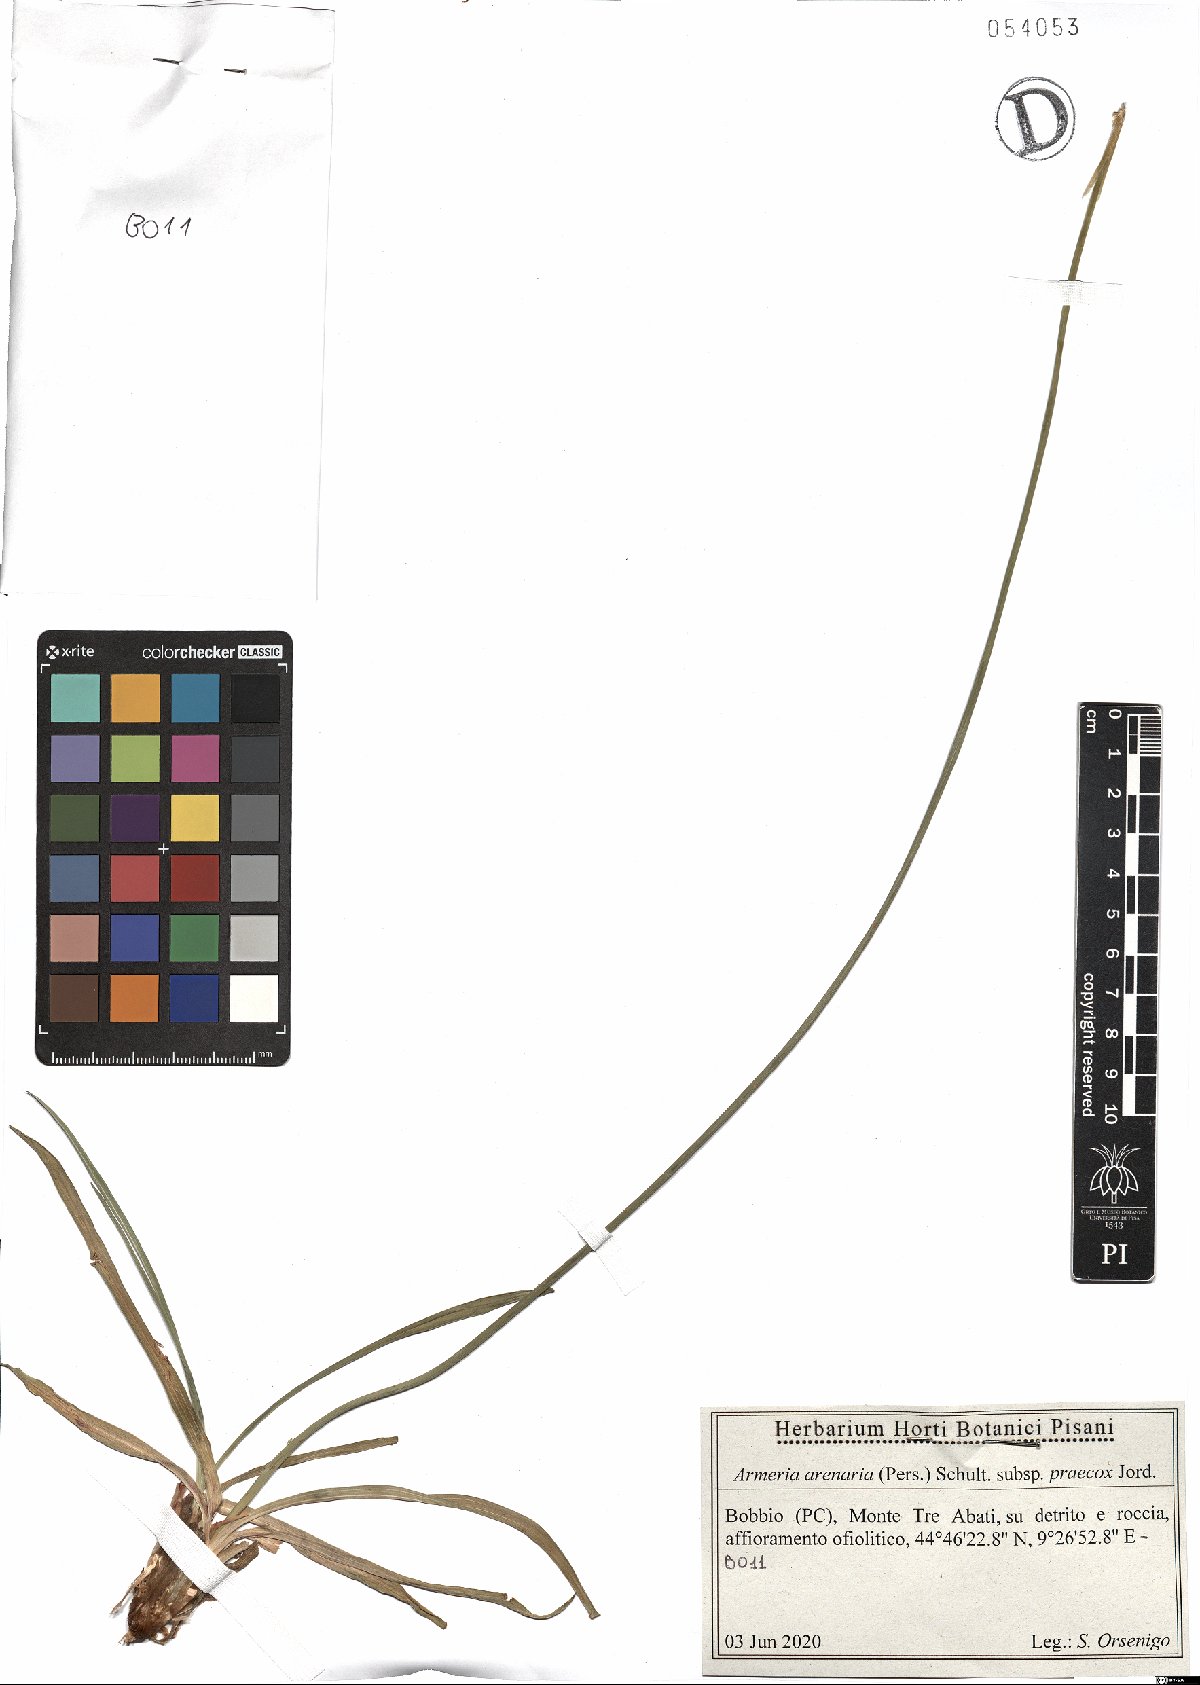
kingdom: Plantae
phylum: Tracheophyta
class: Magnoliopsida
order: Caryophyllales
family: Plumbaginaceae
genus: Armeria
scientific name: Armeria arenaria
